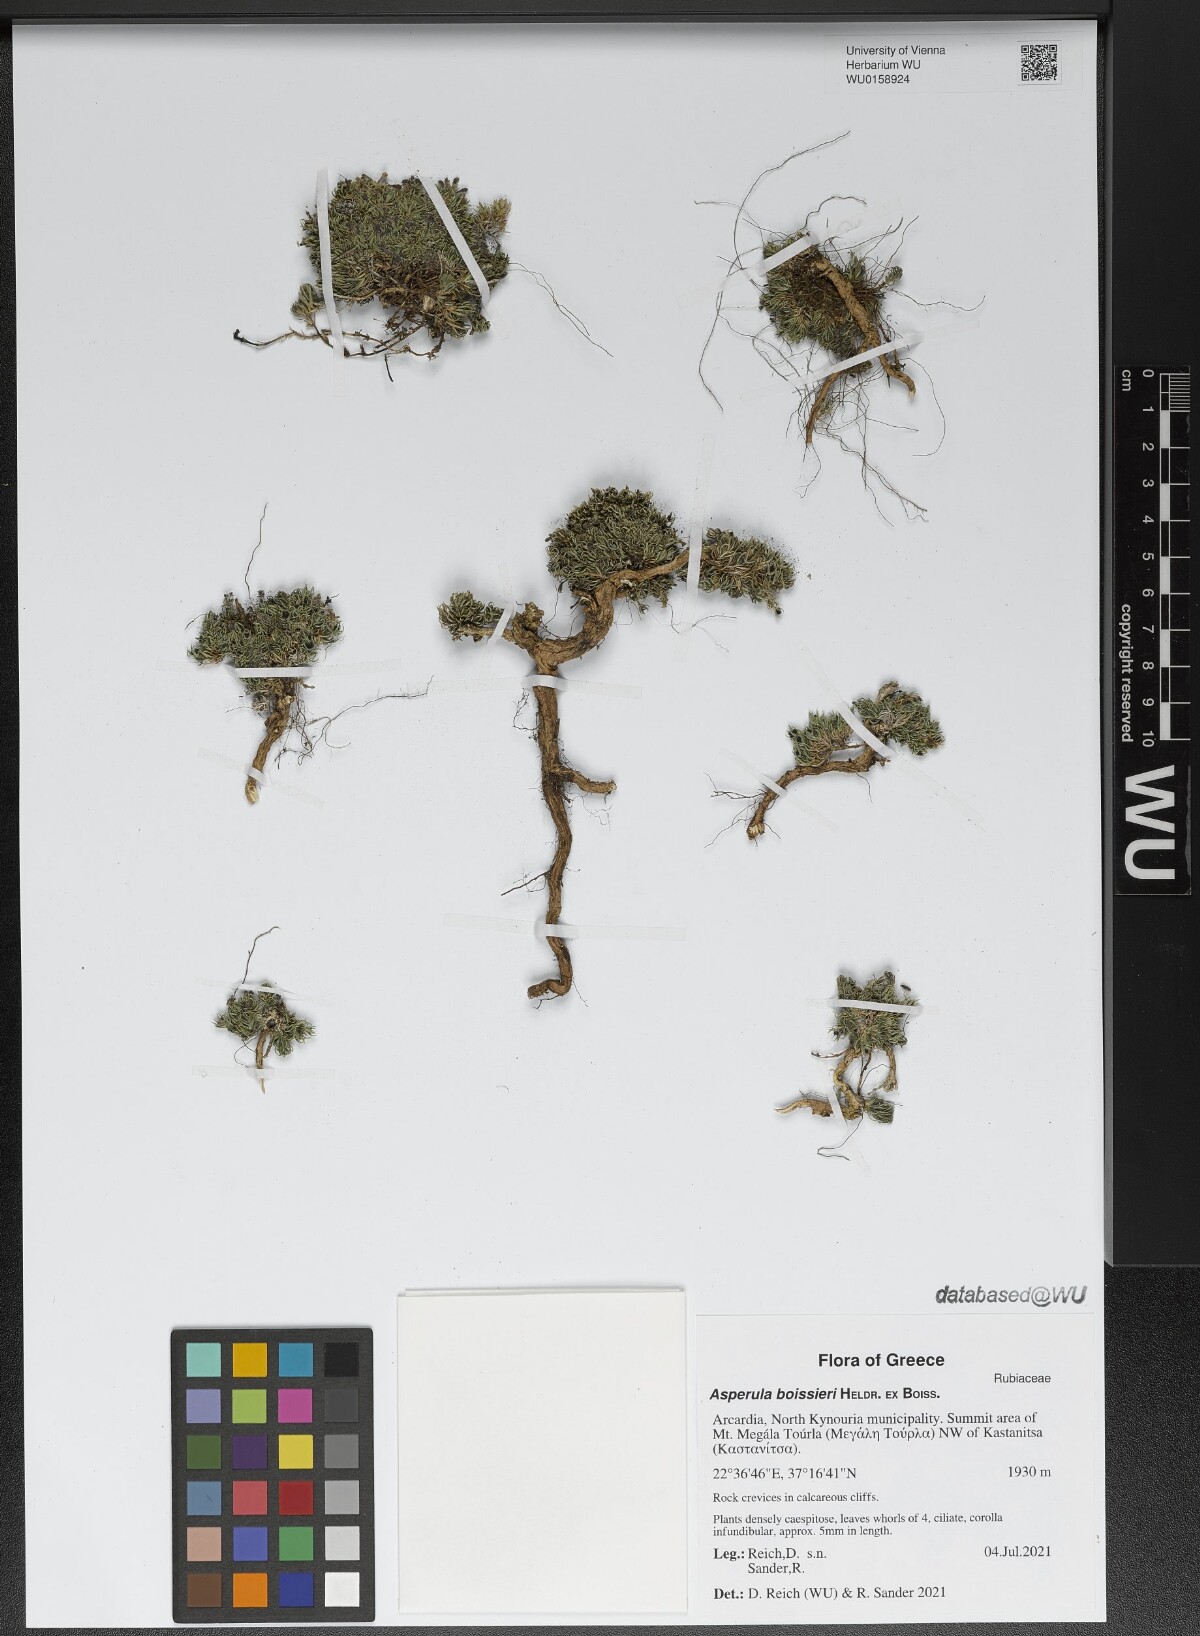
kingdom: Plantae
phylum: Tracheophyta
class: Magnoliopsida
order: Gentianales
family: Rubiaceae
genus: Cynanchica
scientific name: Cynanchica boissieri
